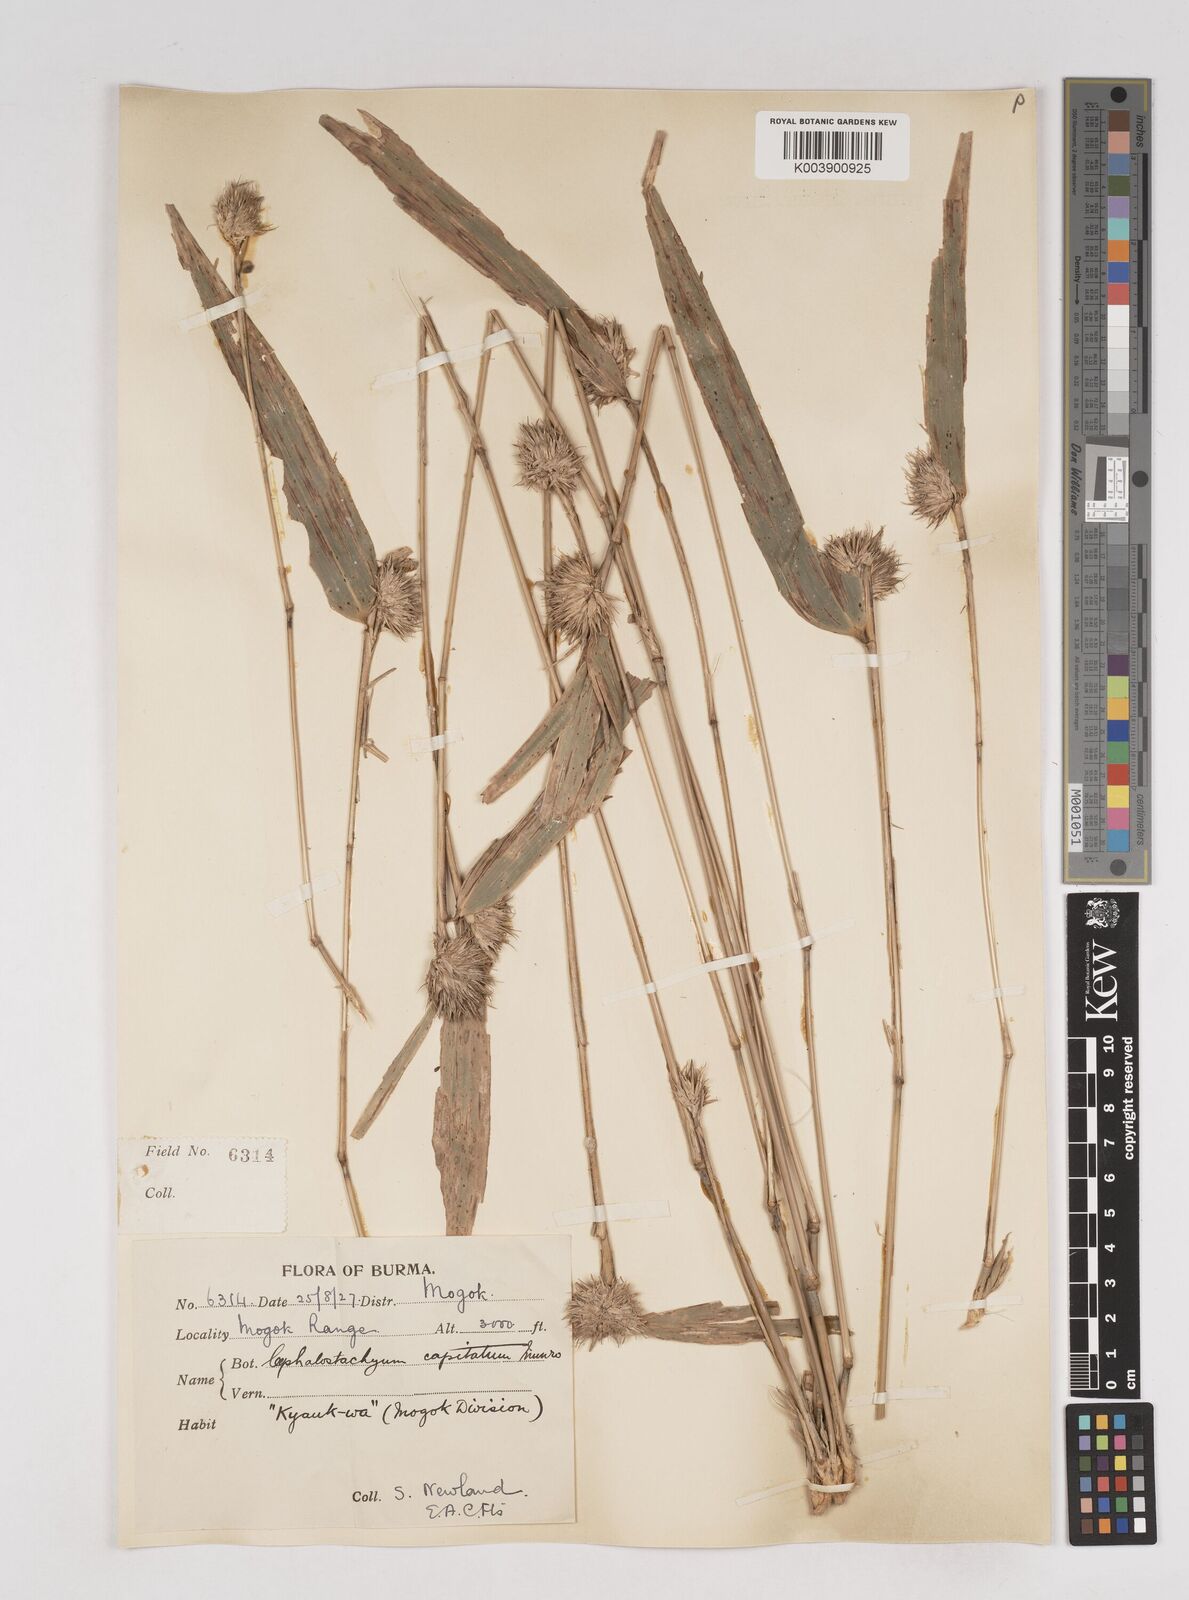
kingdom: Plantae
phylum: Tracheophyta
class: Liliopsida
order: Poales
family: Poaceae
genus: Cephalostachyum
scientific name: Cephalostachyum capitatum
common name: Hollow bamboo
